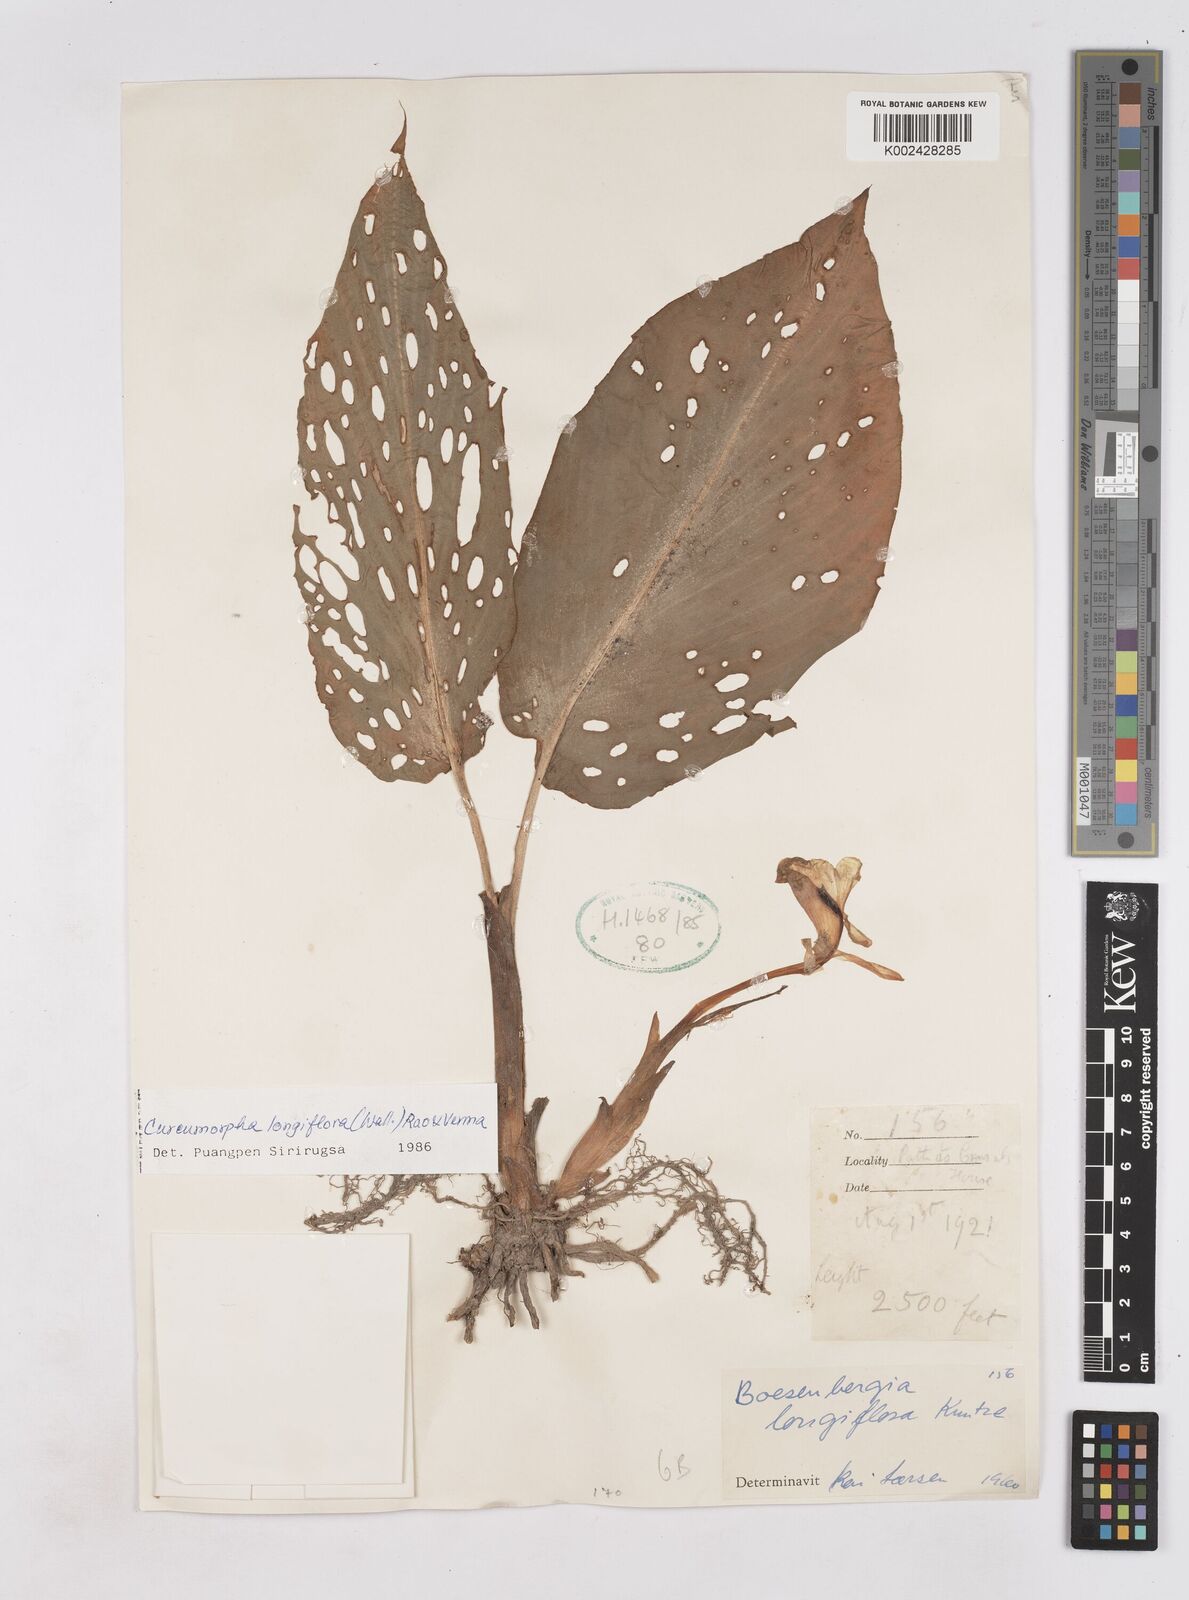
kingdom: Plantae
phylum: Tracheophyta
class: Liliopsida
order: Zingiberales
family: Zingiberaceae
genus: Boesenbergia
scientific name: Boesenbergia longiflora
